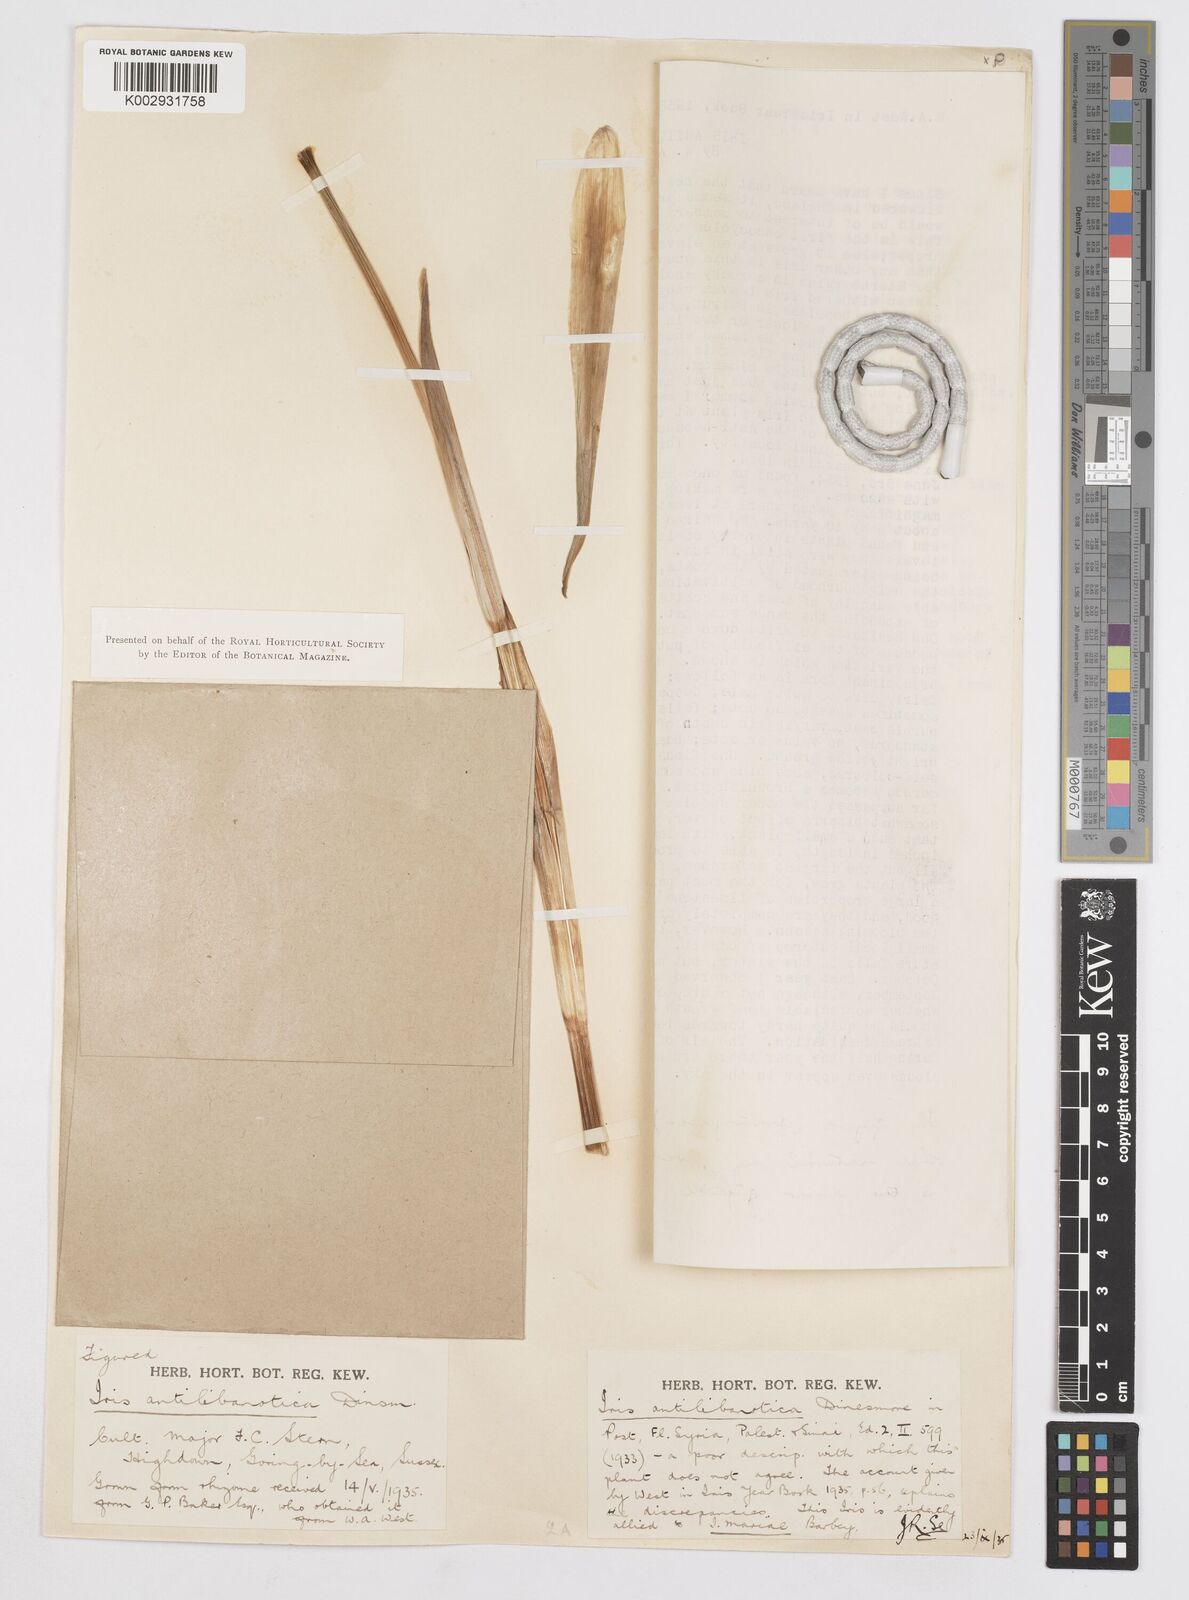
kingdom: Plantae
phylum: Tracheophyta
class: Liliopsida
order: Asparagales
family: Iridaceae
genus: Iris
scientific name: Iris antilibanotica
